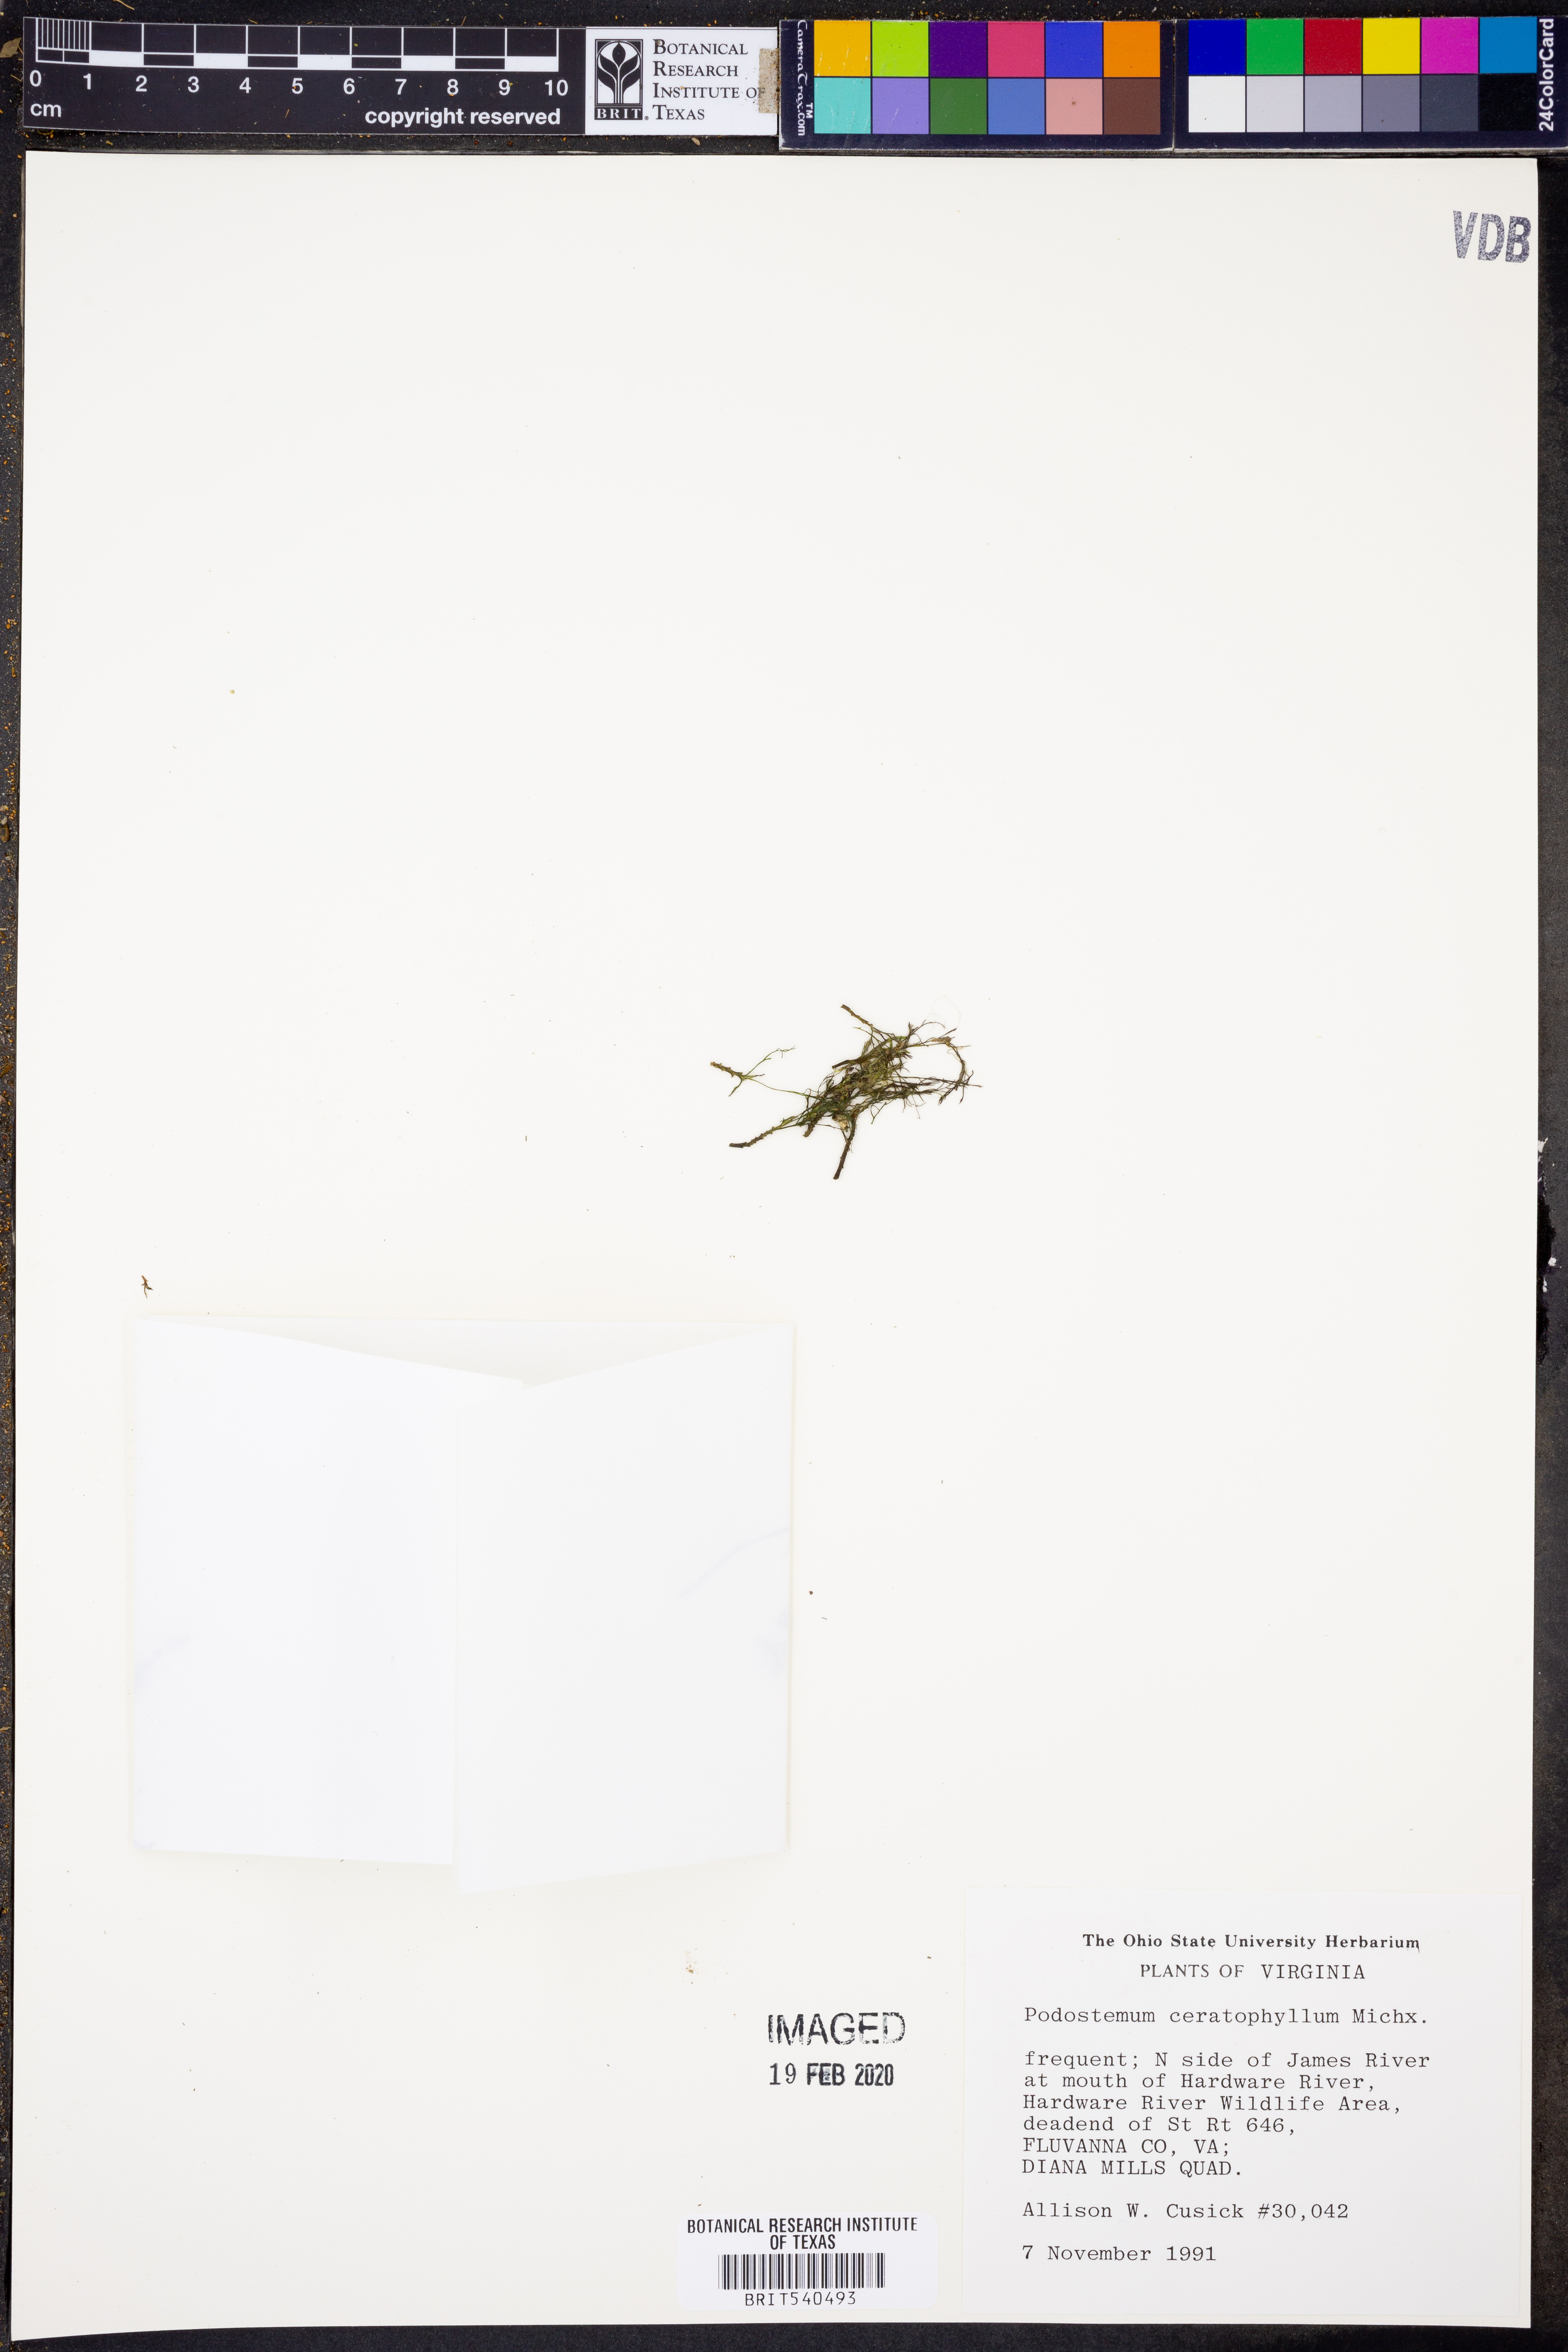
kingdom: Plantae
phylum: Tracheophyta
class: Magnoliopsida
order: Malpighiales
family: Podostemaceae
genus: Podostemum
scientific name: Podostemum ceratophyllum
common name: Horn-leaved riverweed
